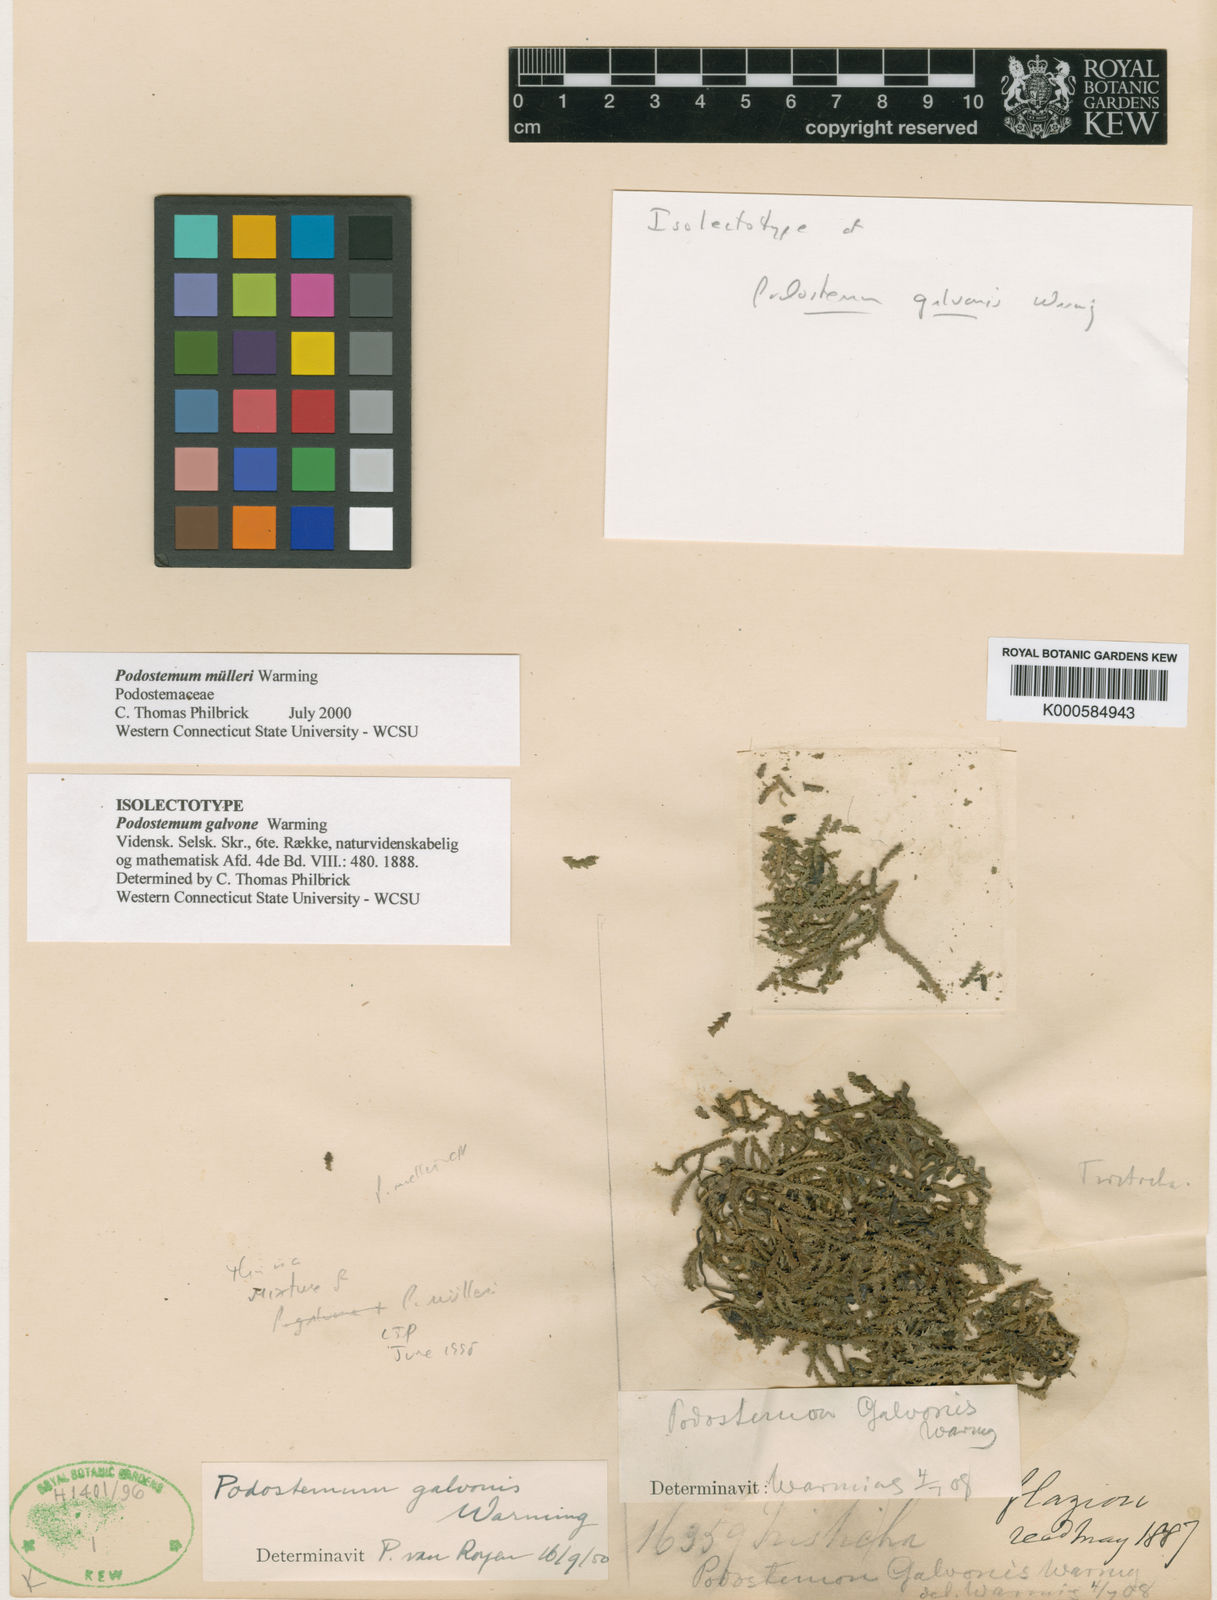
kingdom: Plantae
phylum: Tracheophyta
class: Magnoliopsida
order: Malpighiales
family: Podostemaceae
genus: Podostemum
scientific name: Podostemum muelleri
